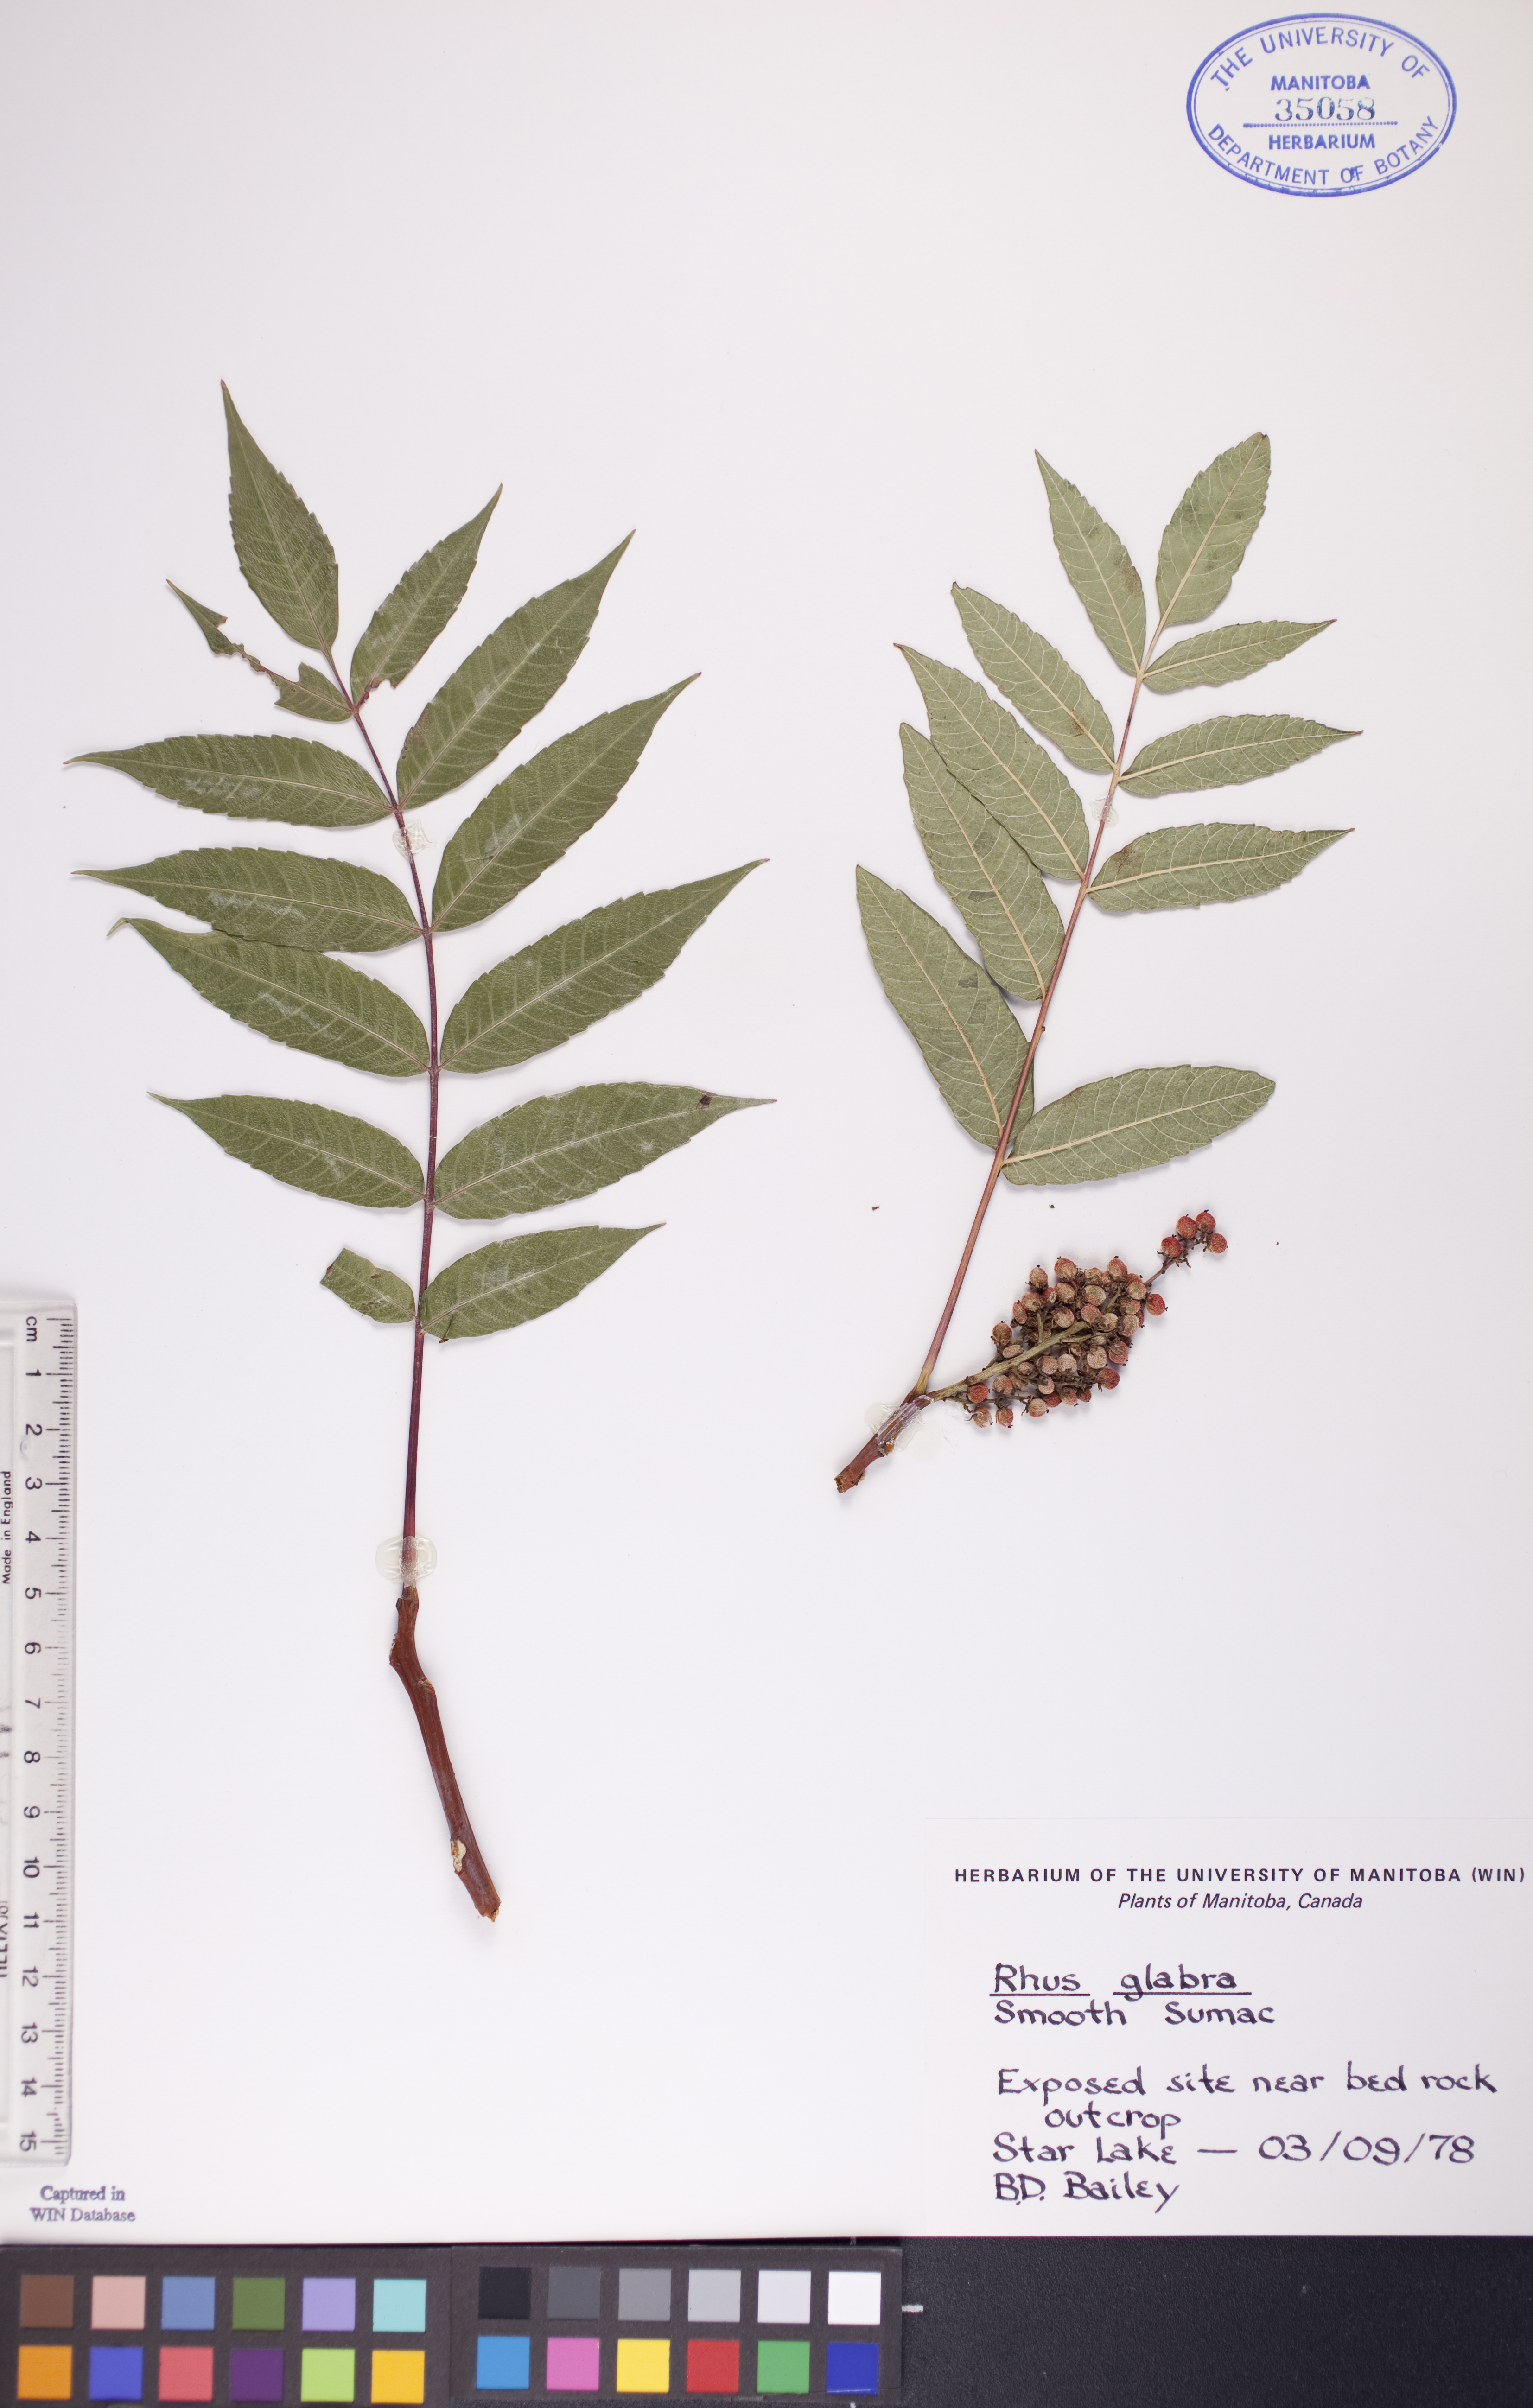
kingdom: Plantae
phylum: Tracheophyta
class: Magnoliopsida
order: Sapindales
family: Anacardiaceae
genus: Rhus
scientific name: Rhus glabra
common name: Scarlet sumac
